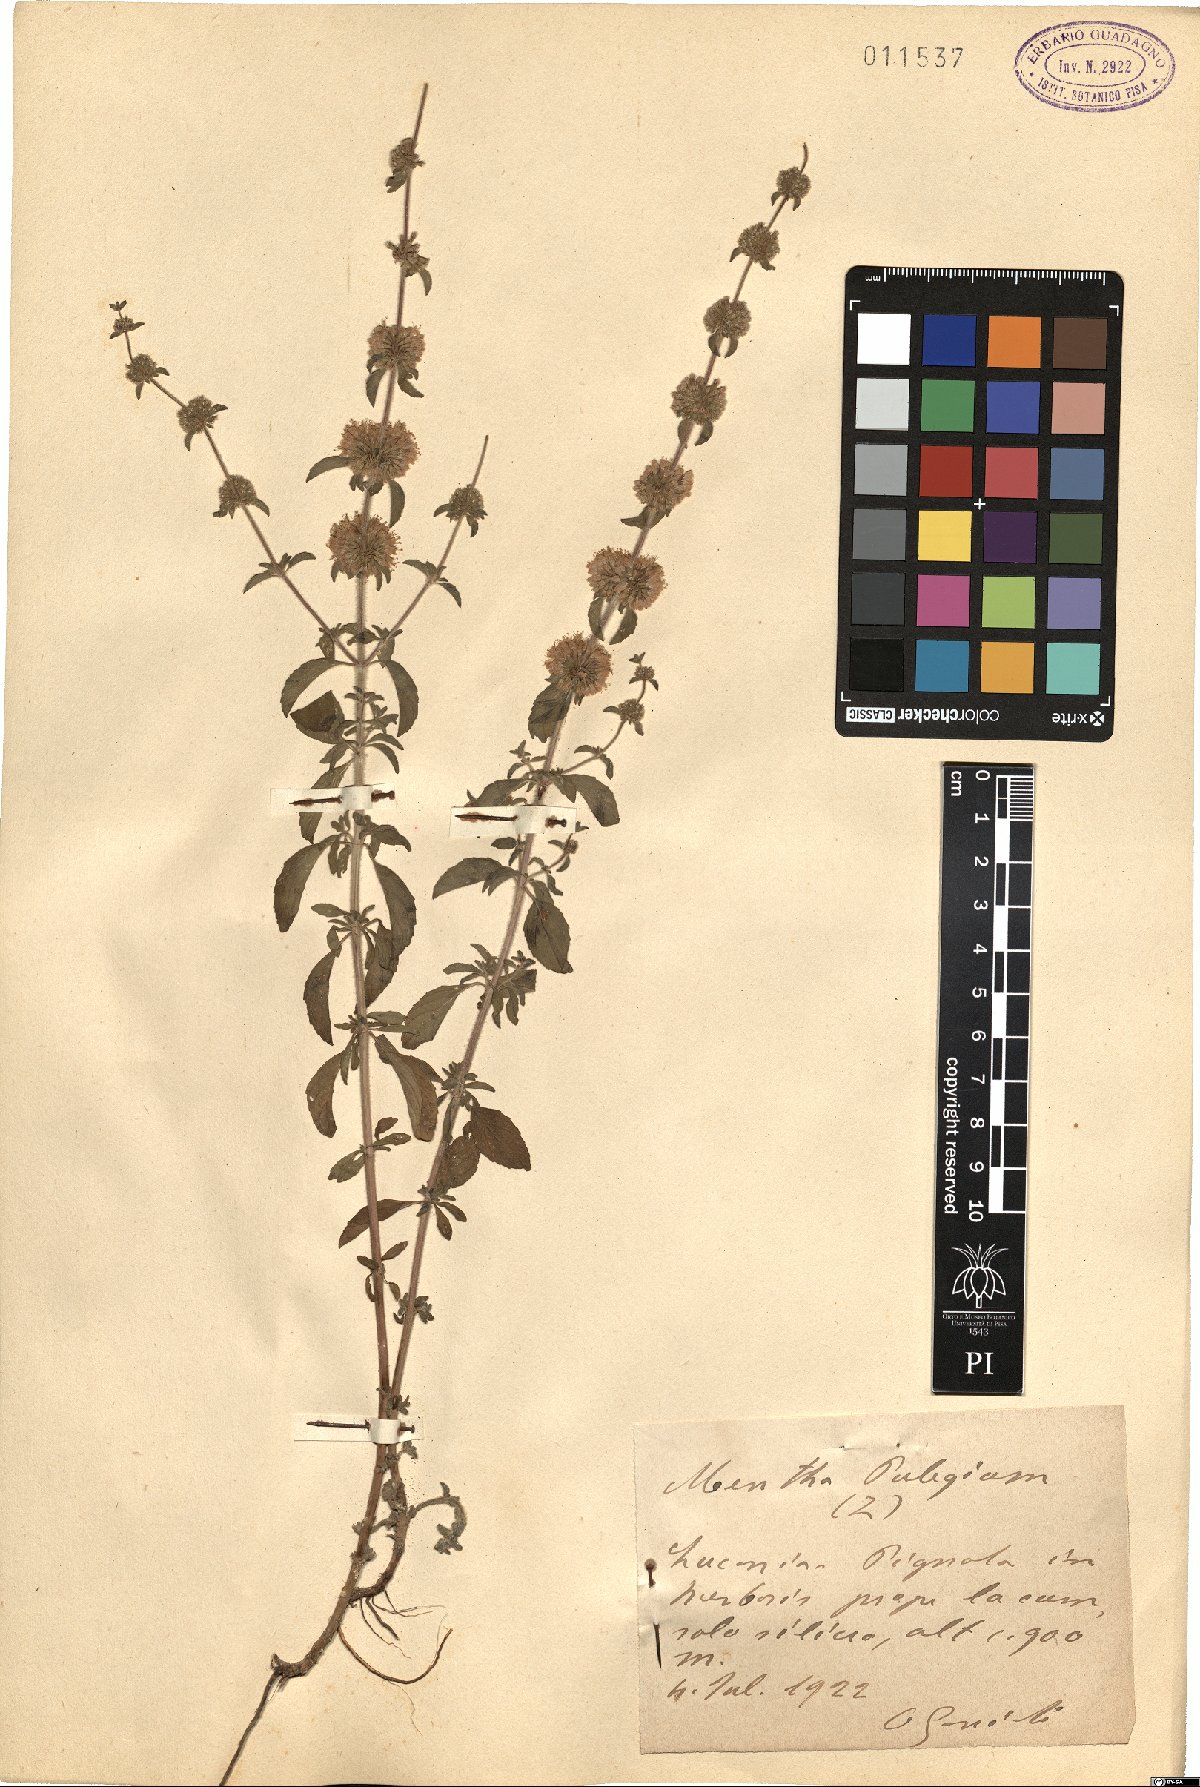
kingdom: Plantae
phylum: Tracheophyta
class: Magnoliopsida
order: Lamiales
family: Lamiaceae
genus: Mentha
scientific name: Mentha pulegium
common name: Pennyroyal
